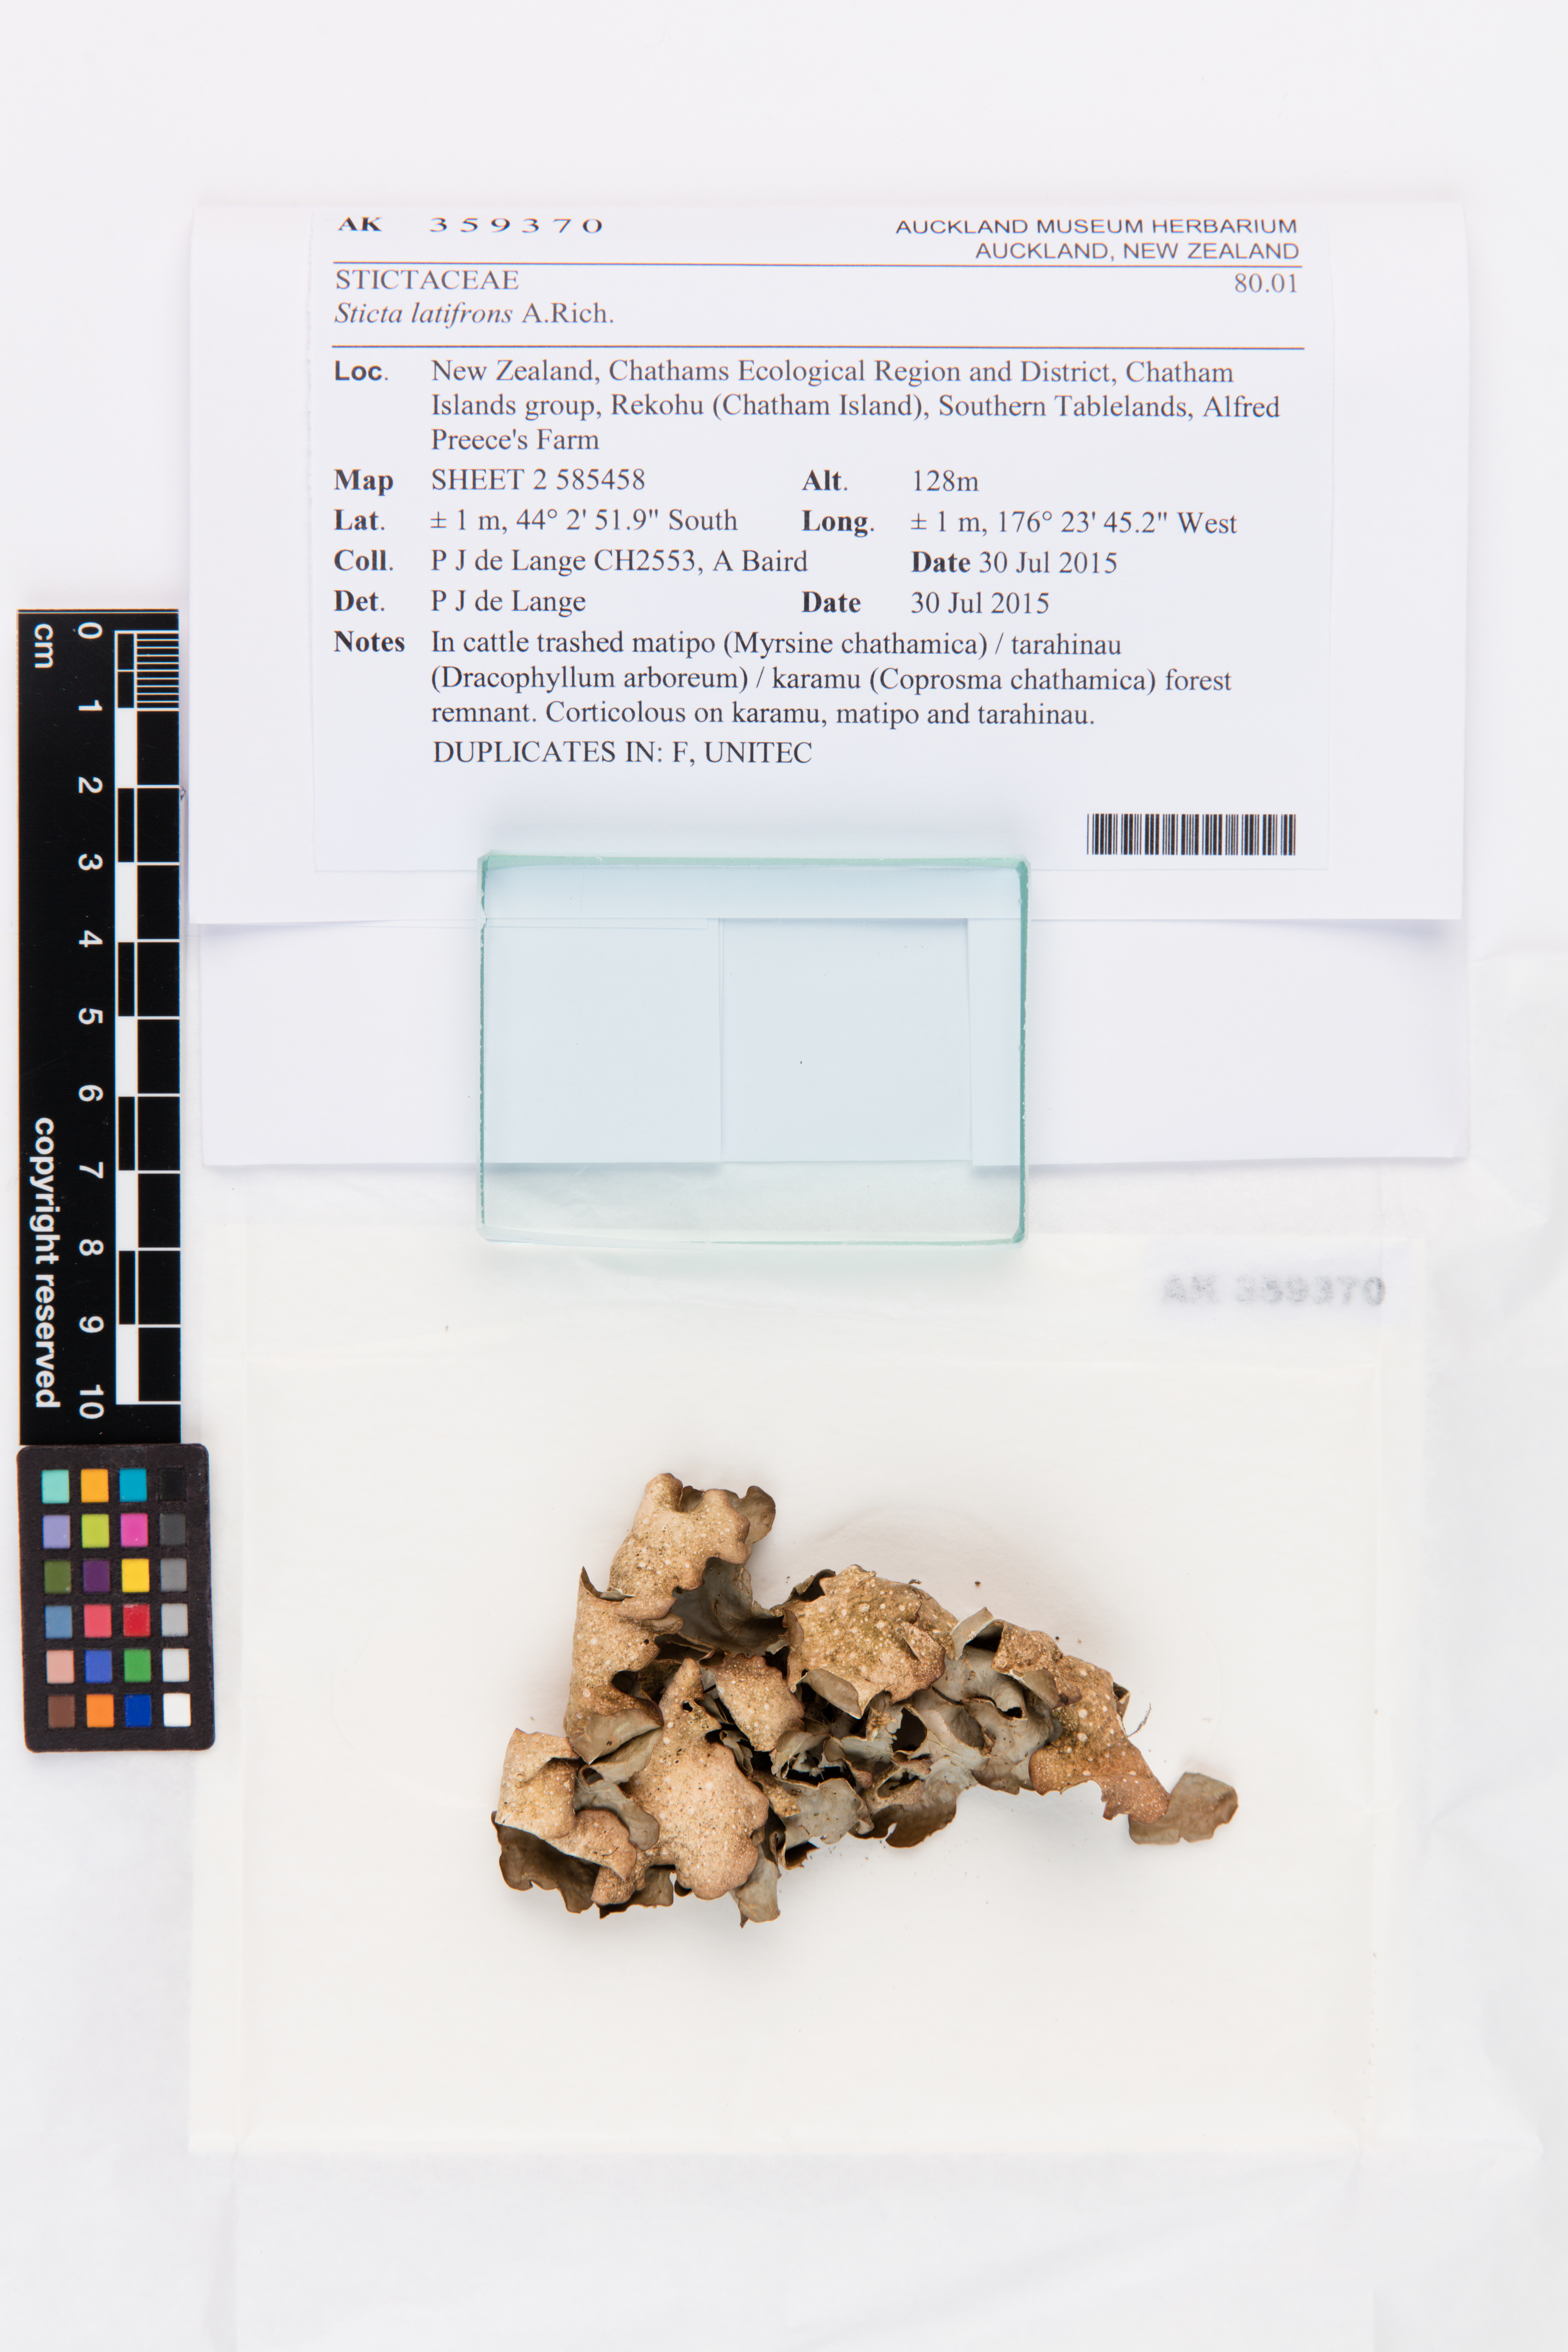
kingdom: Fungi
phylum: Ascomycota
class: Lecanoromycetes
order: Peltigerales
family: Lobariaceae
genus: Sticta
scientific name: Sticta latifrons
